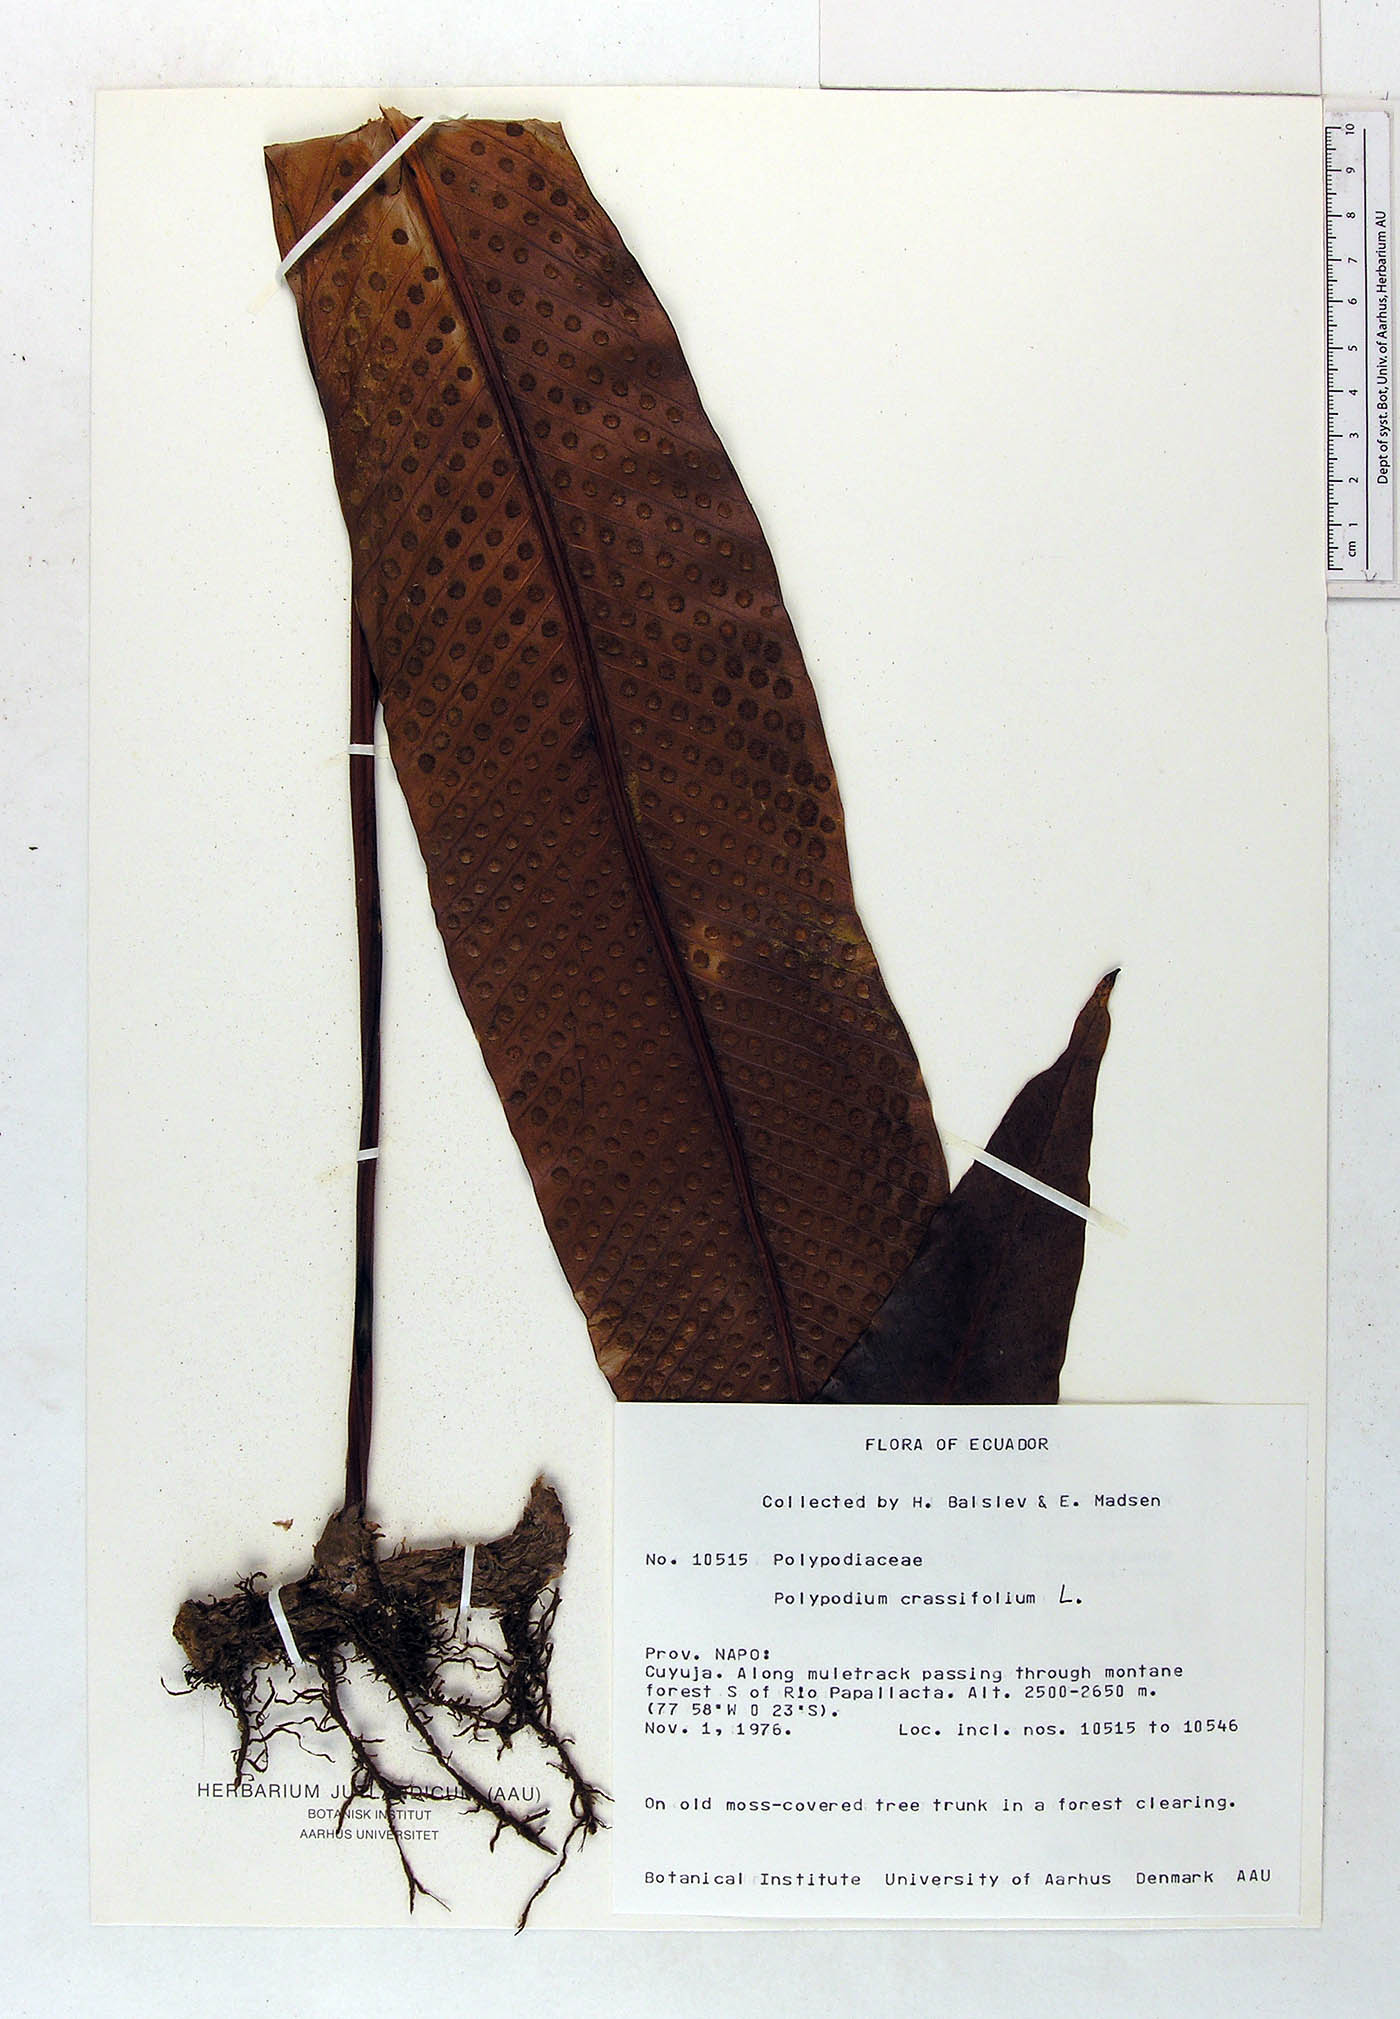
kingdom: Plantae
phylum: Tracheophyta
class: Polypodiopsida
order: Polypodiales
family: Polypodiaceae
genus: Niphidium
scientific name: Niphidium crassifolium
